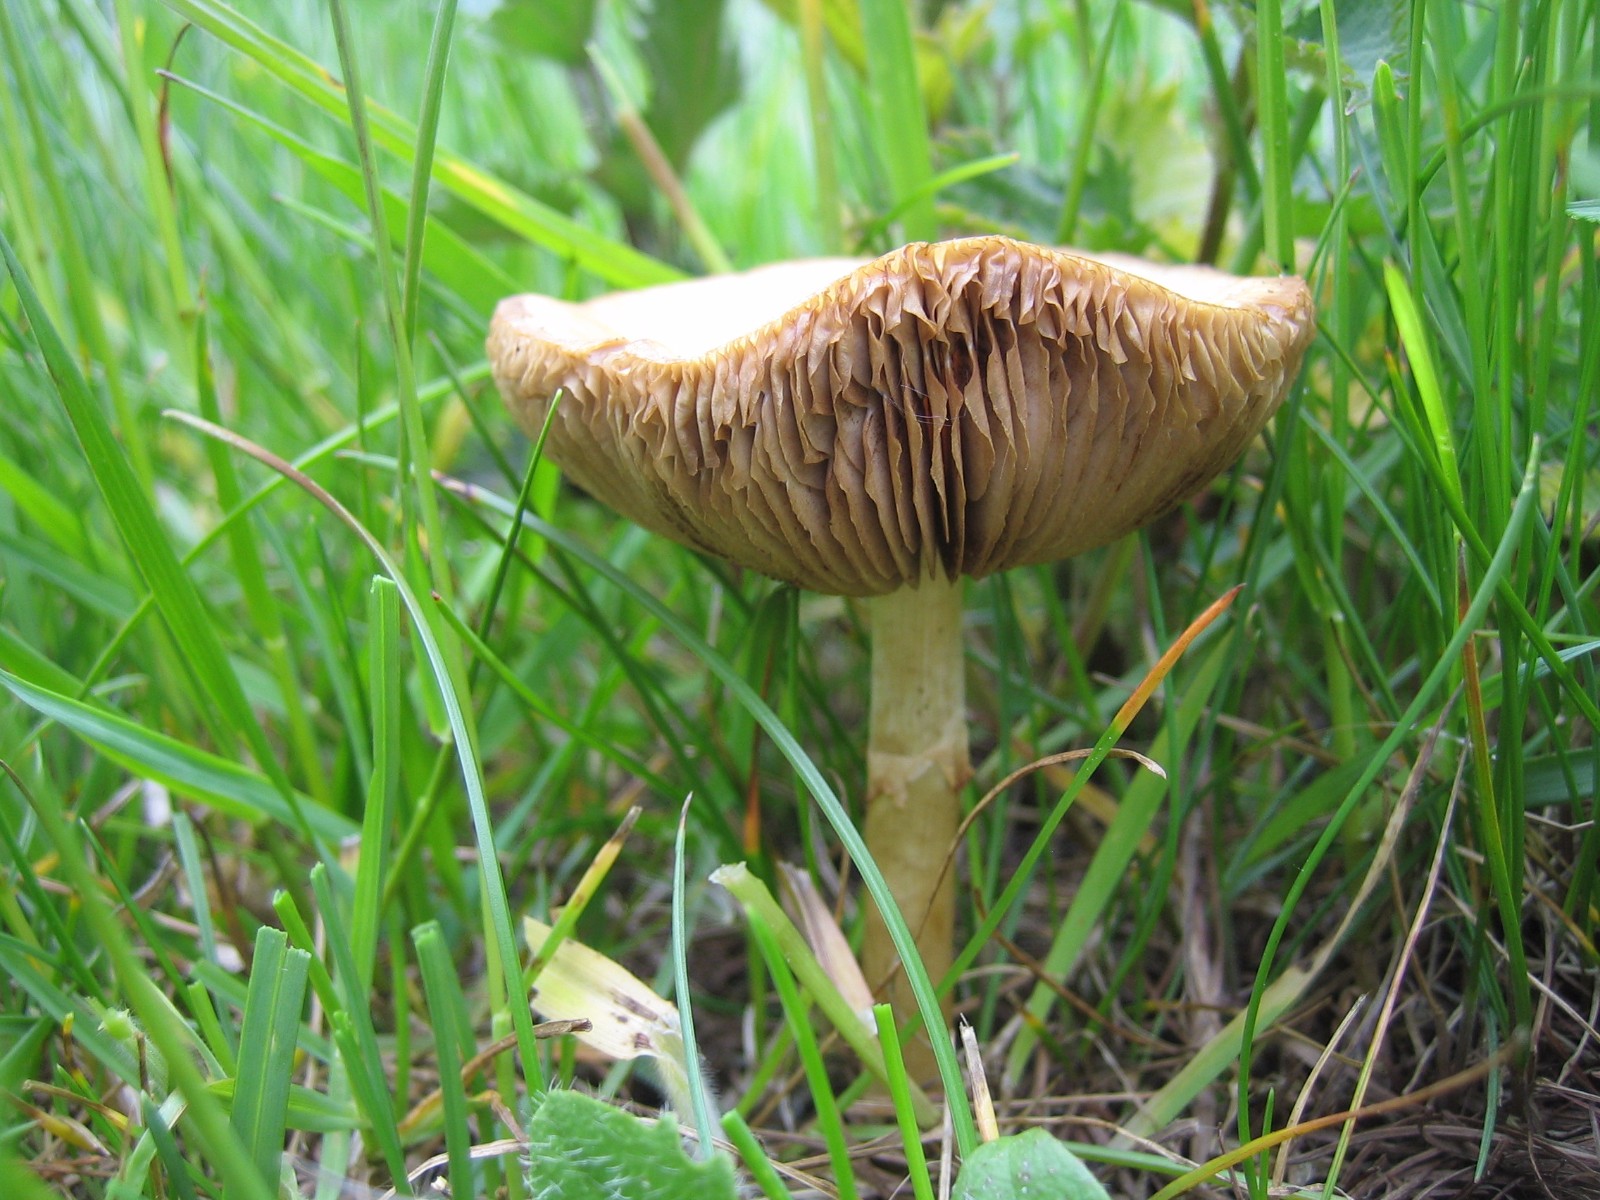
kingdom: Fungi
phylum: Basidiomycota
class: Agaricomycetes
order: Agaricales
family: Strophariaceae
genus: Agrocybe
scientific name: Agrocybe praecox
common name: tidlig agerhat
